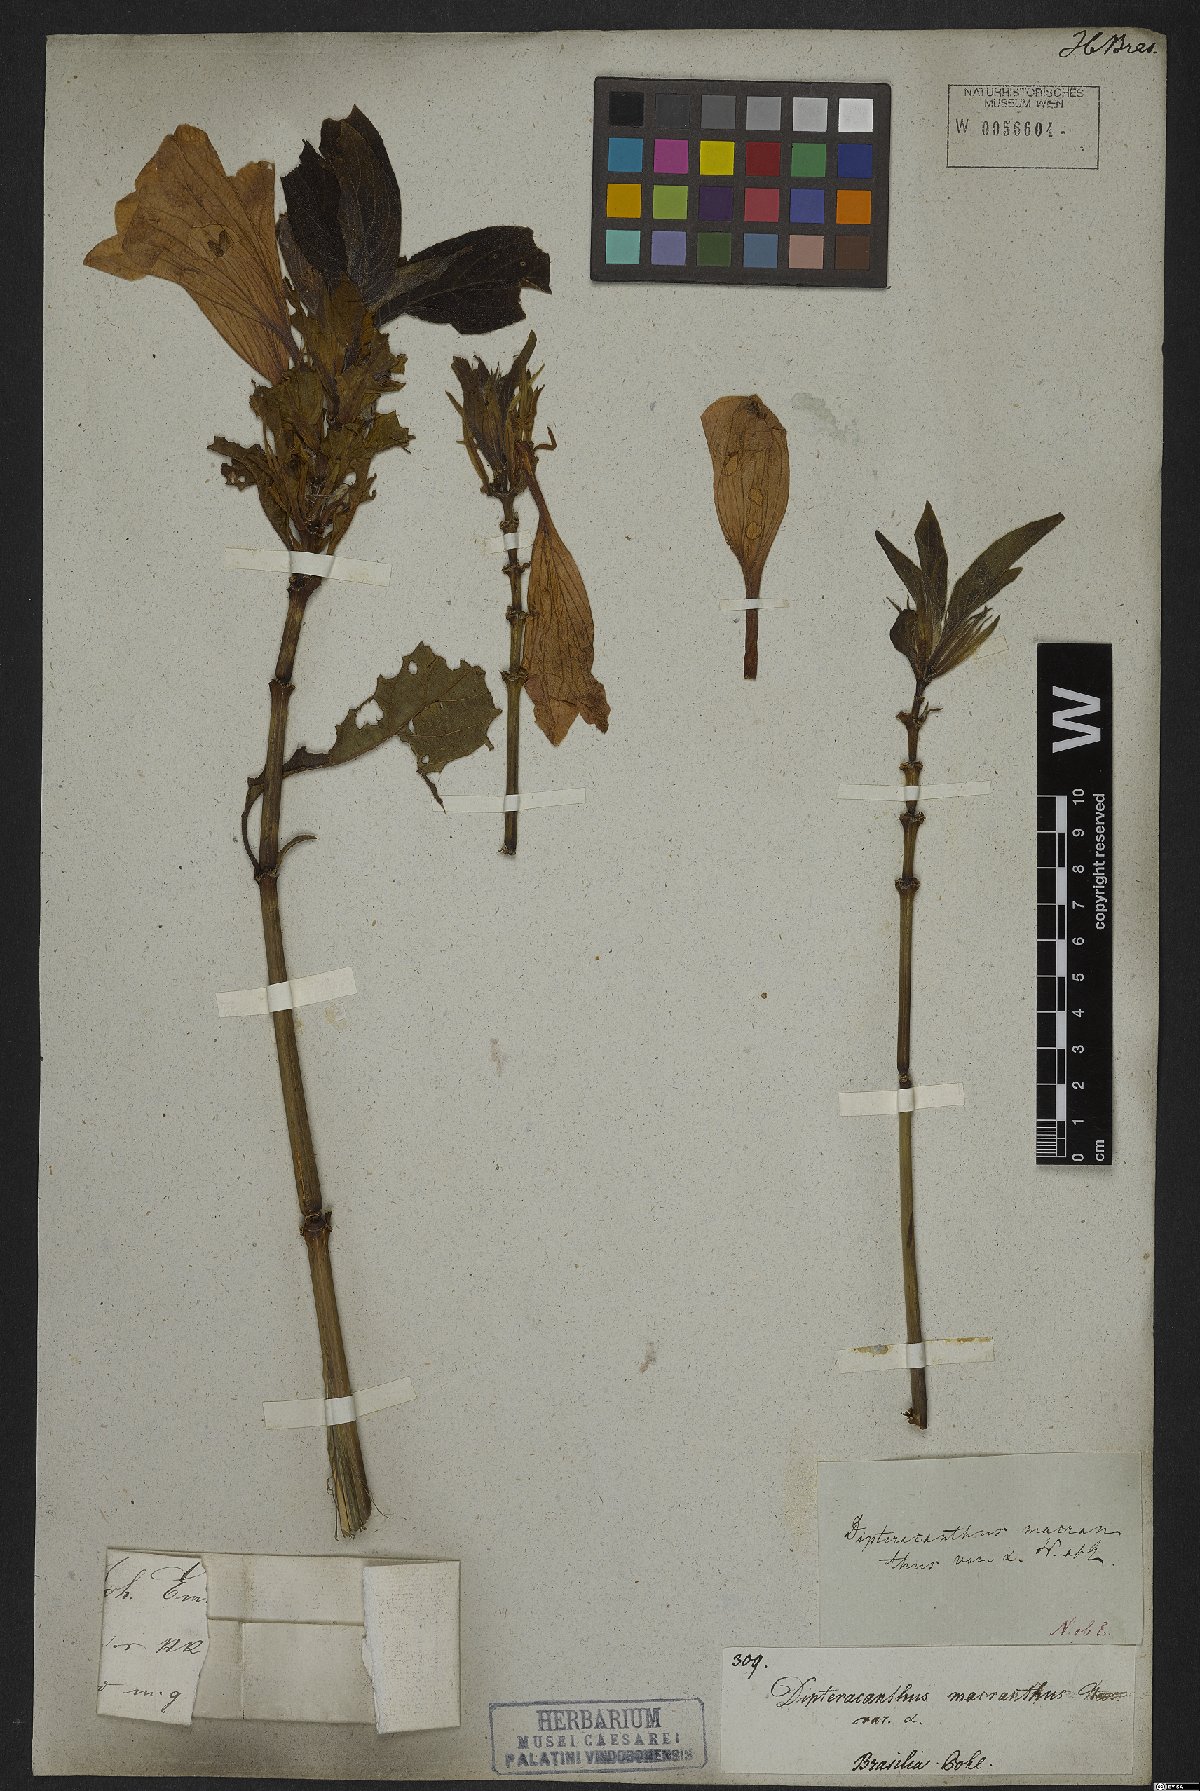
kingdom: Plantae
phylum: Tracheophyta
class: Magnoliopsida
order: Lamiales
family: Acanthaceae
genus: Ruellia
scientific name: Ruellia macrantha
